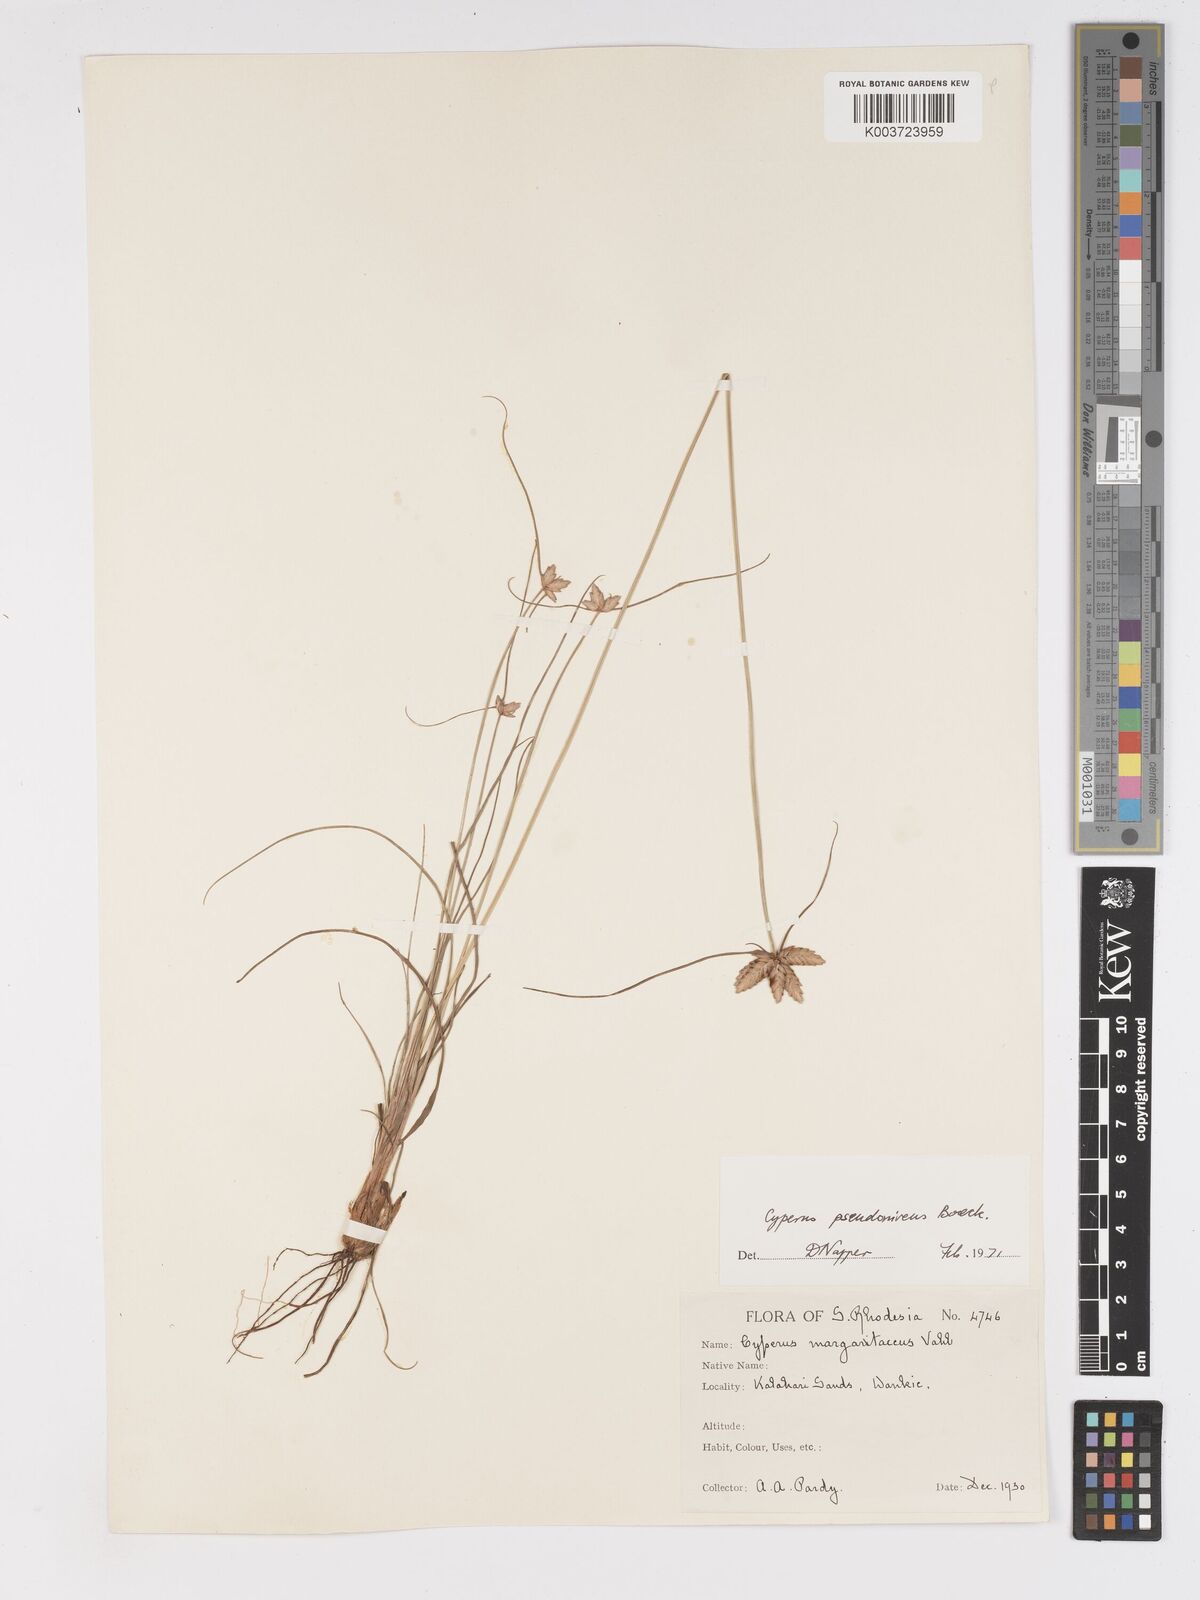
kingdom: Plantae
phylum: Tracheophyta
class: Liliopsida
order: Poales
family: Cyperaceae
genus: Cyperus
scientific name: Cyperus margaritaceus
